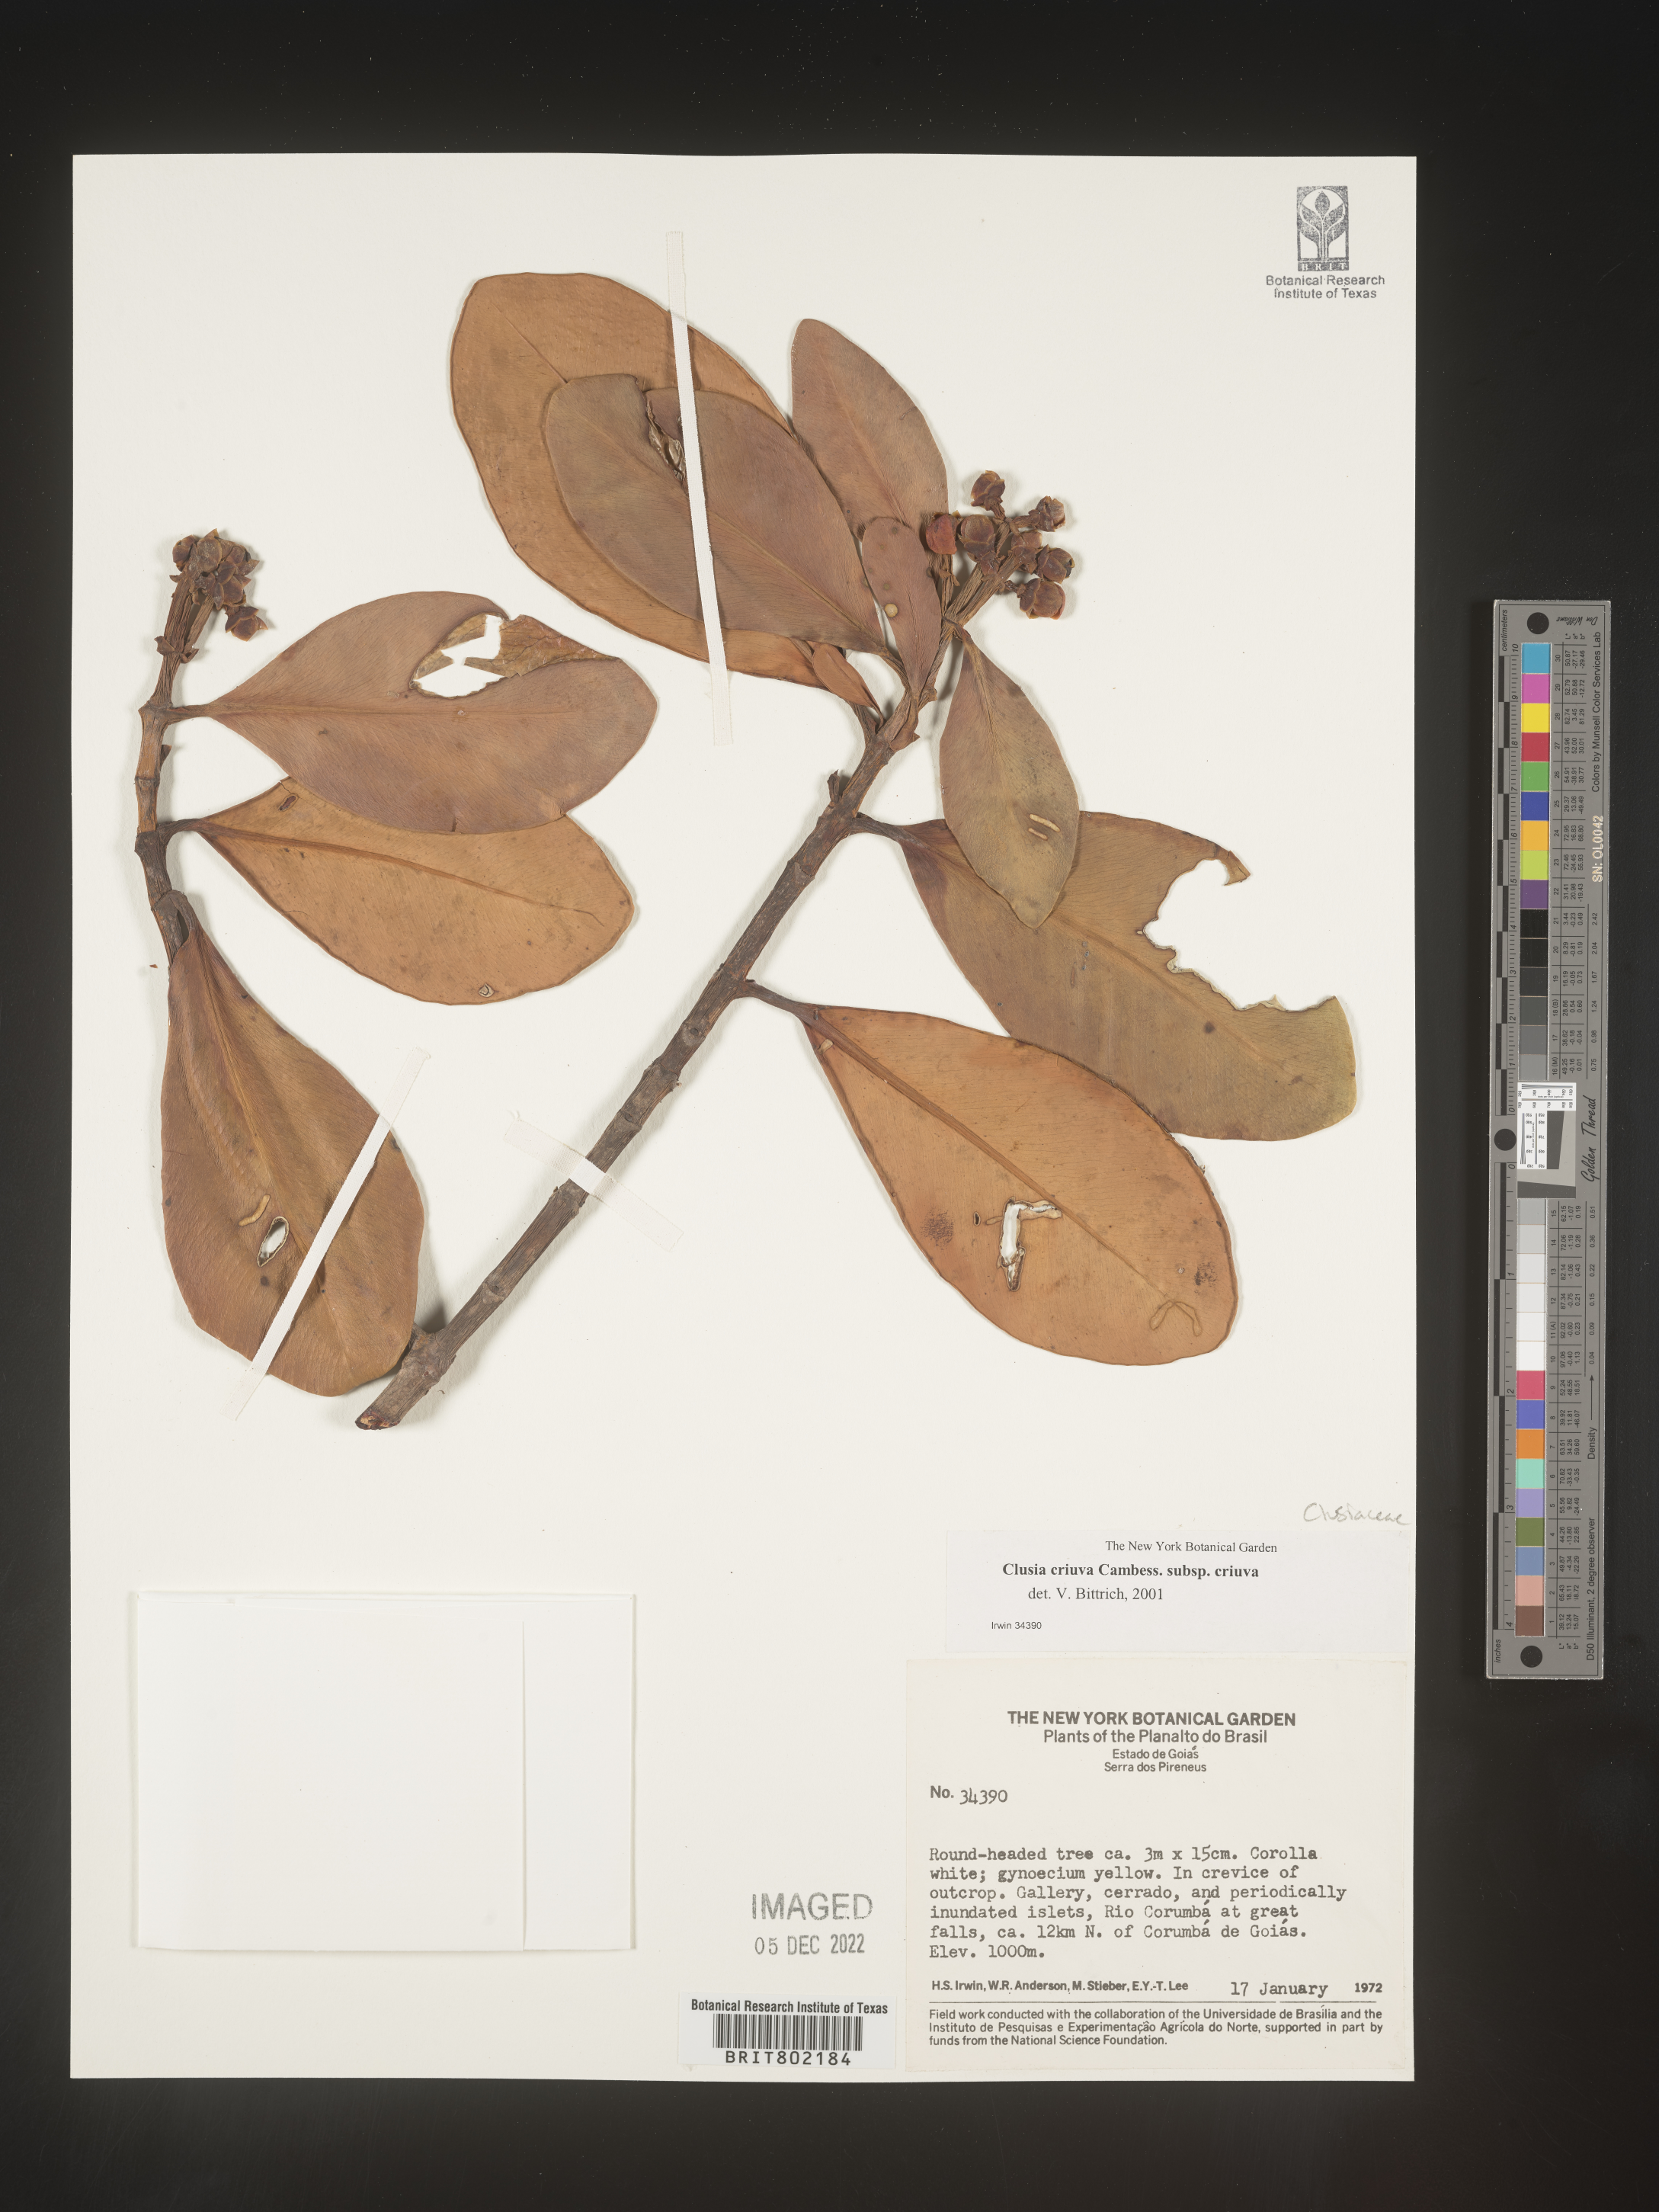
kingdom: Plantae
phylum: Tracheophyta
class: Magnoliopsida
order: Malpighiales
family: Clusiaceae
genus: Clusia
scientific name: Clusia
